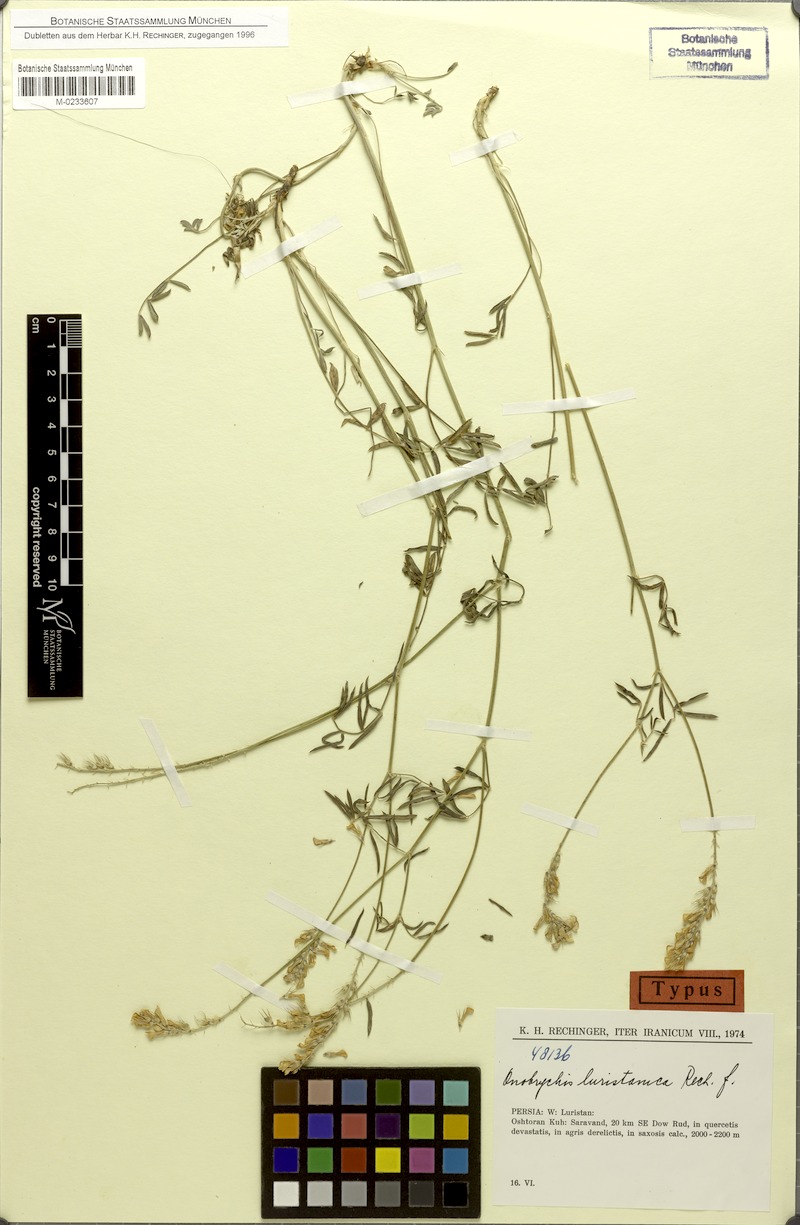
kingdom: Plantae
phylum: Tracheophyta
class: Magnoliopsida
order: Fabales
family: Fabaceae
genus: Onobrychis
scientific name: Onobrychis luristanica
